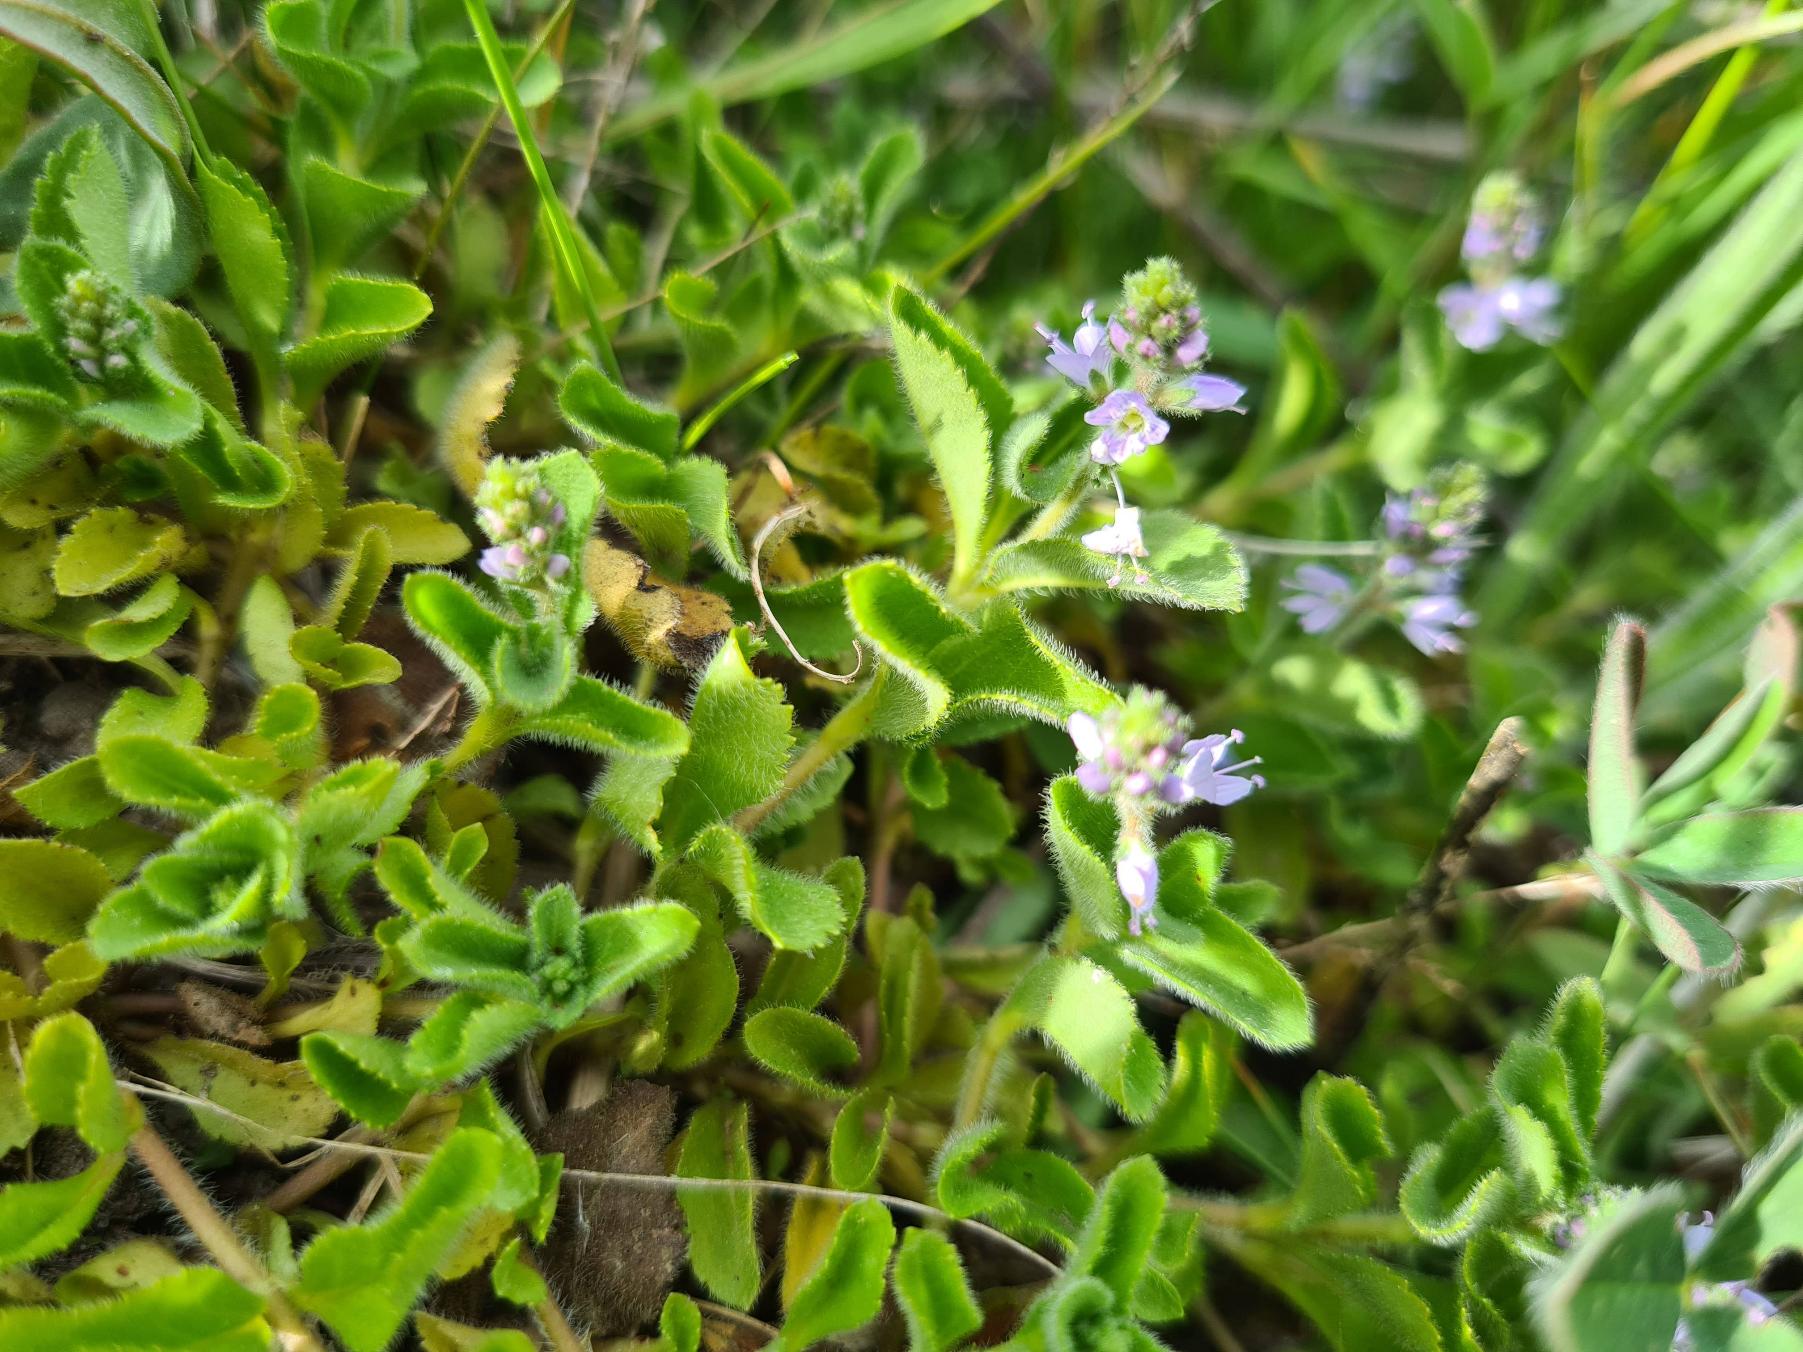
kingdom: Plantae
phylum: Tracheophyta
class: Magnoliopsida
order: Lamiales
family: Plantaginaceae
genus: Veronica
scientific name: Veronica officinalis
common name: Læge-ærenpris
